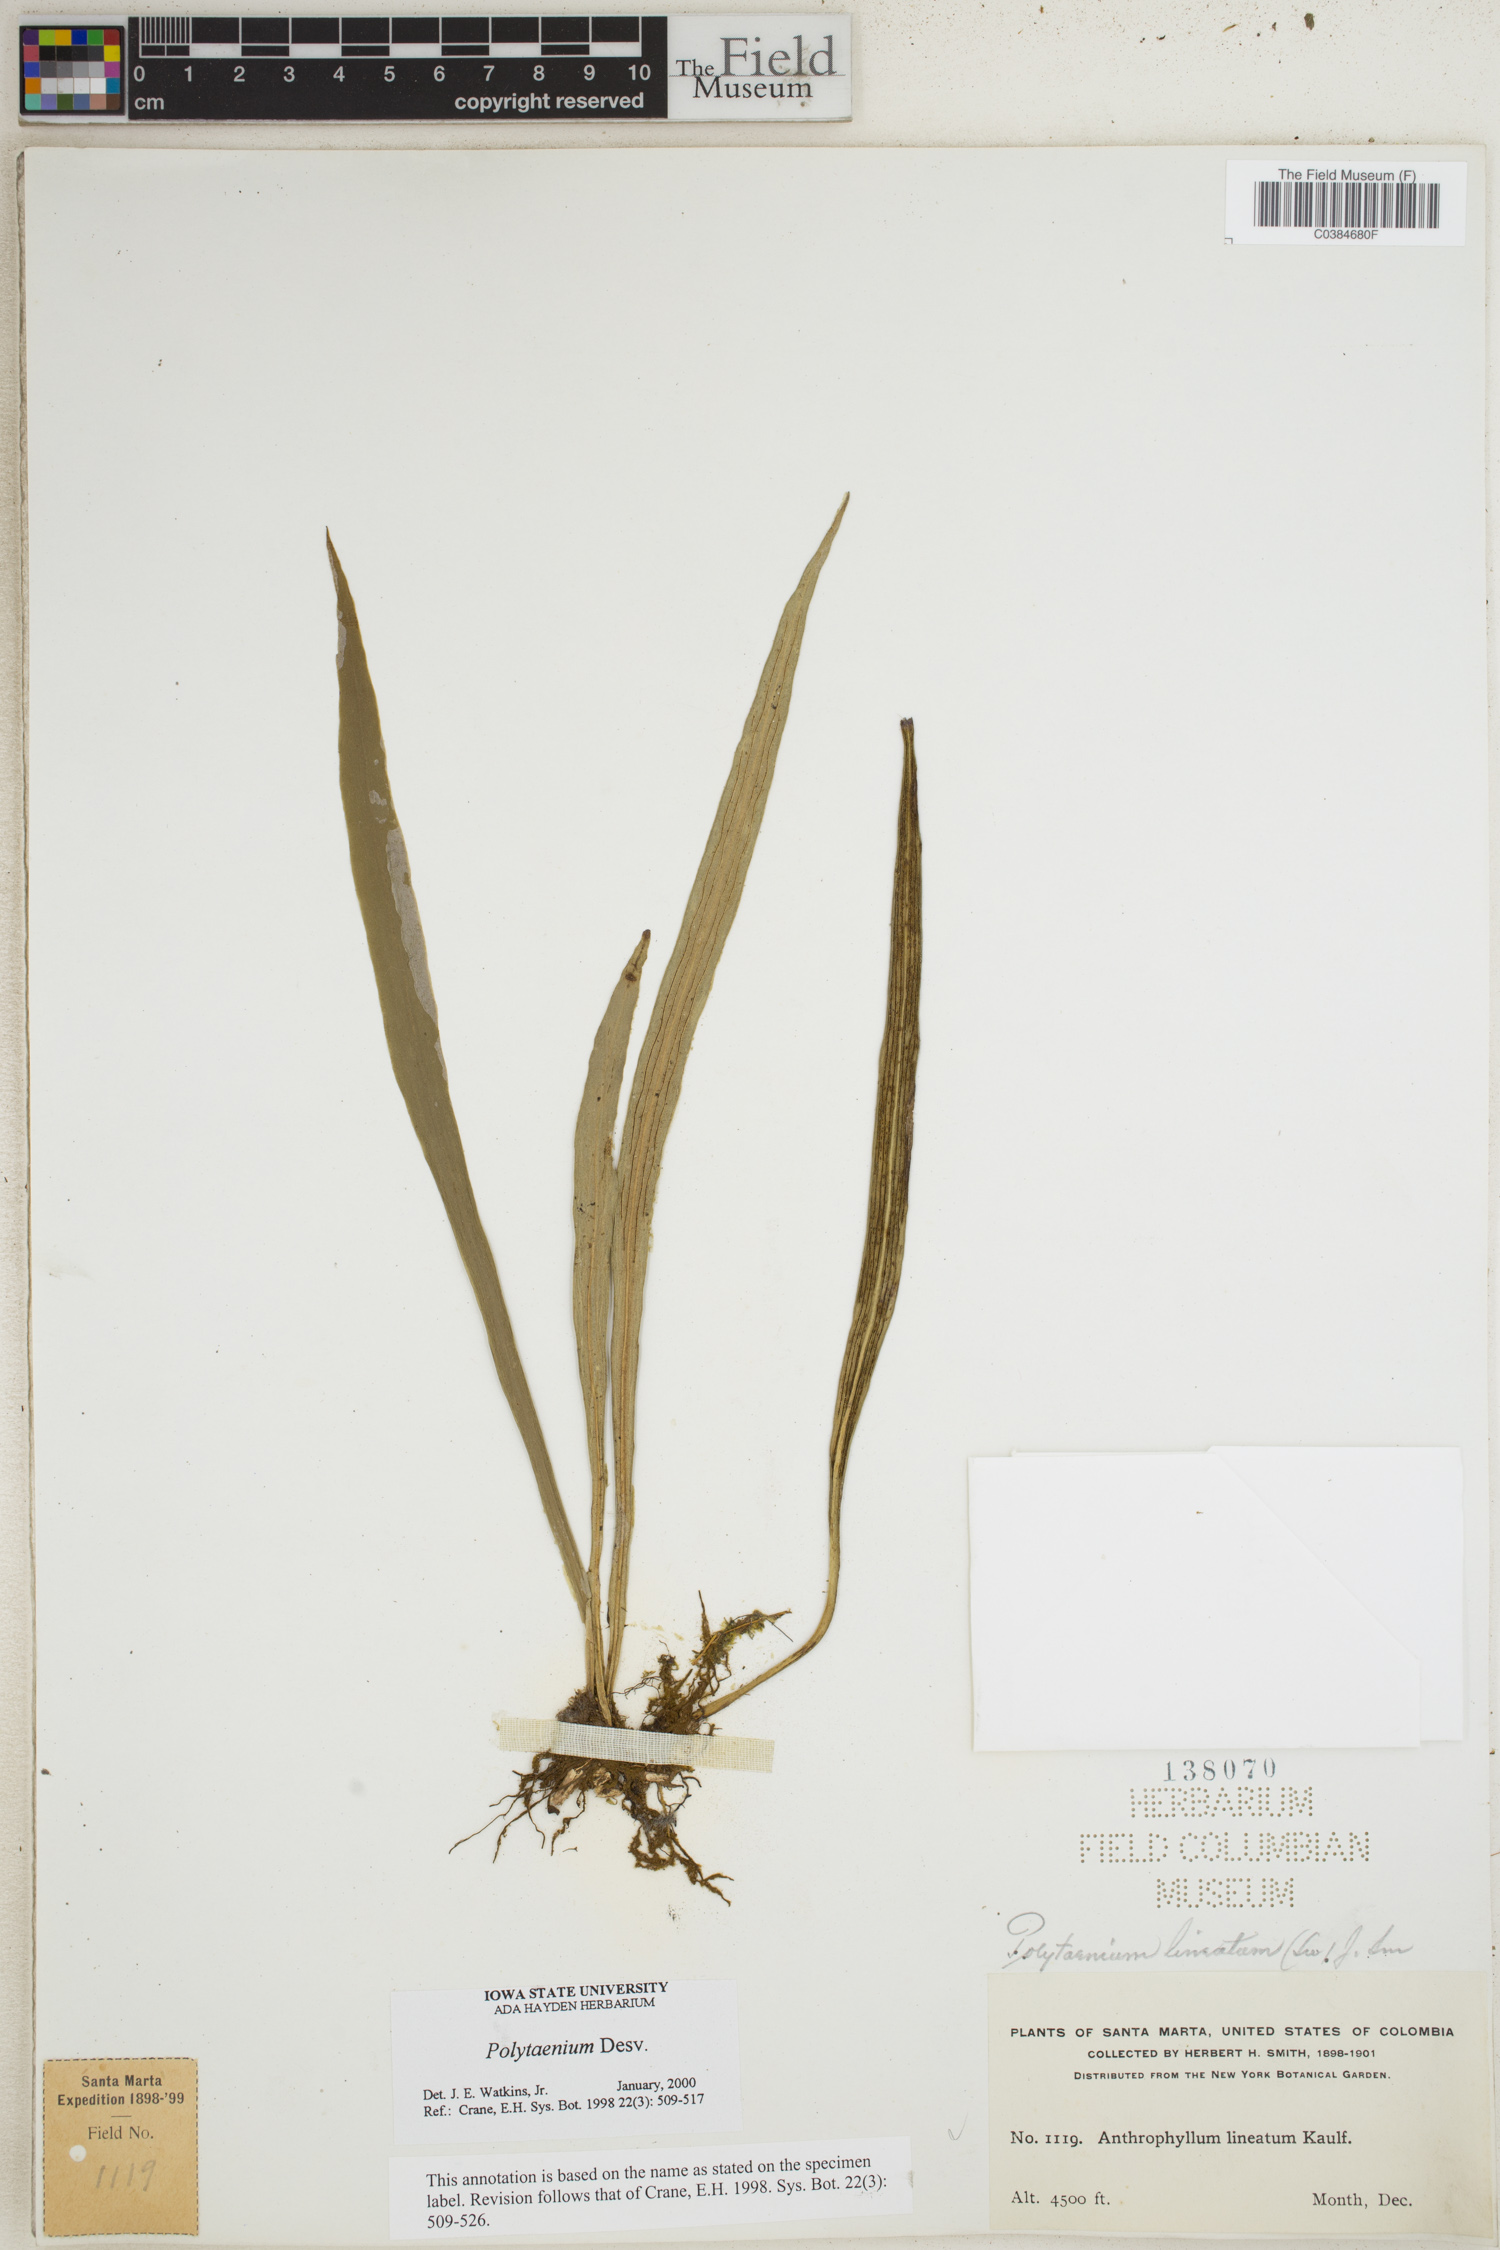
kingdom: Plantae
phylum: Tracheophyta
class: Polypodiopsida
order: Polypodiales
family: Pteridaceae
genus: Polytaenium
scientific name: Polytaenium
